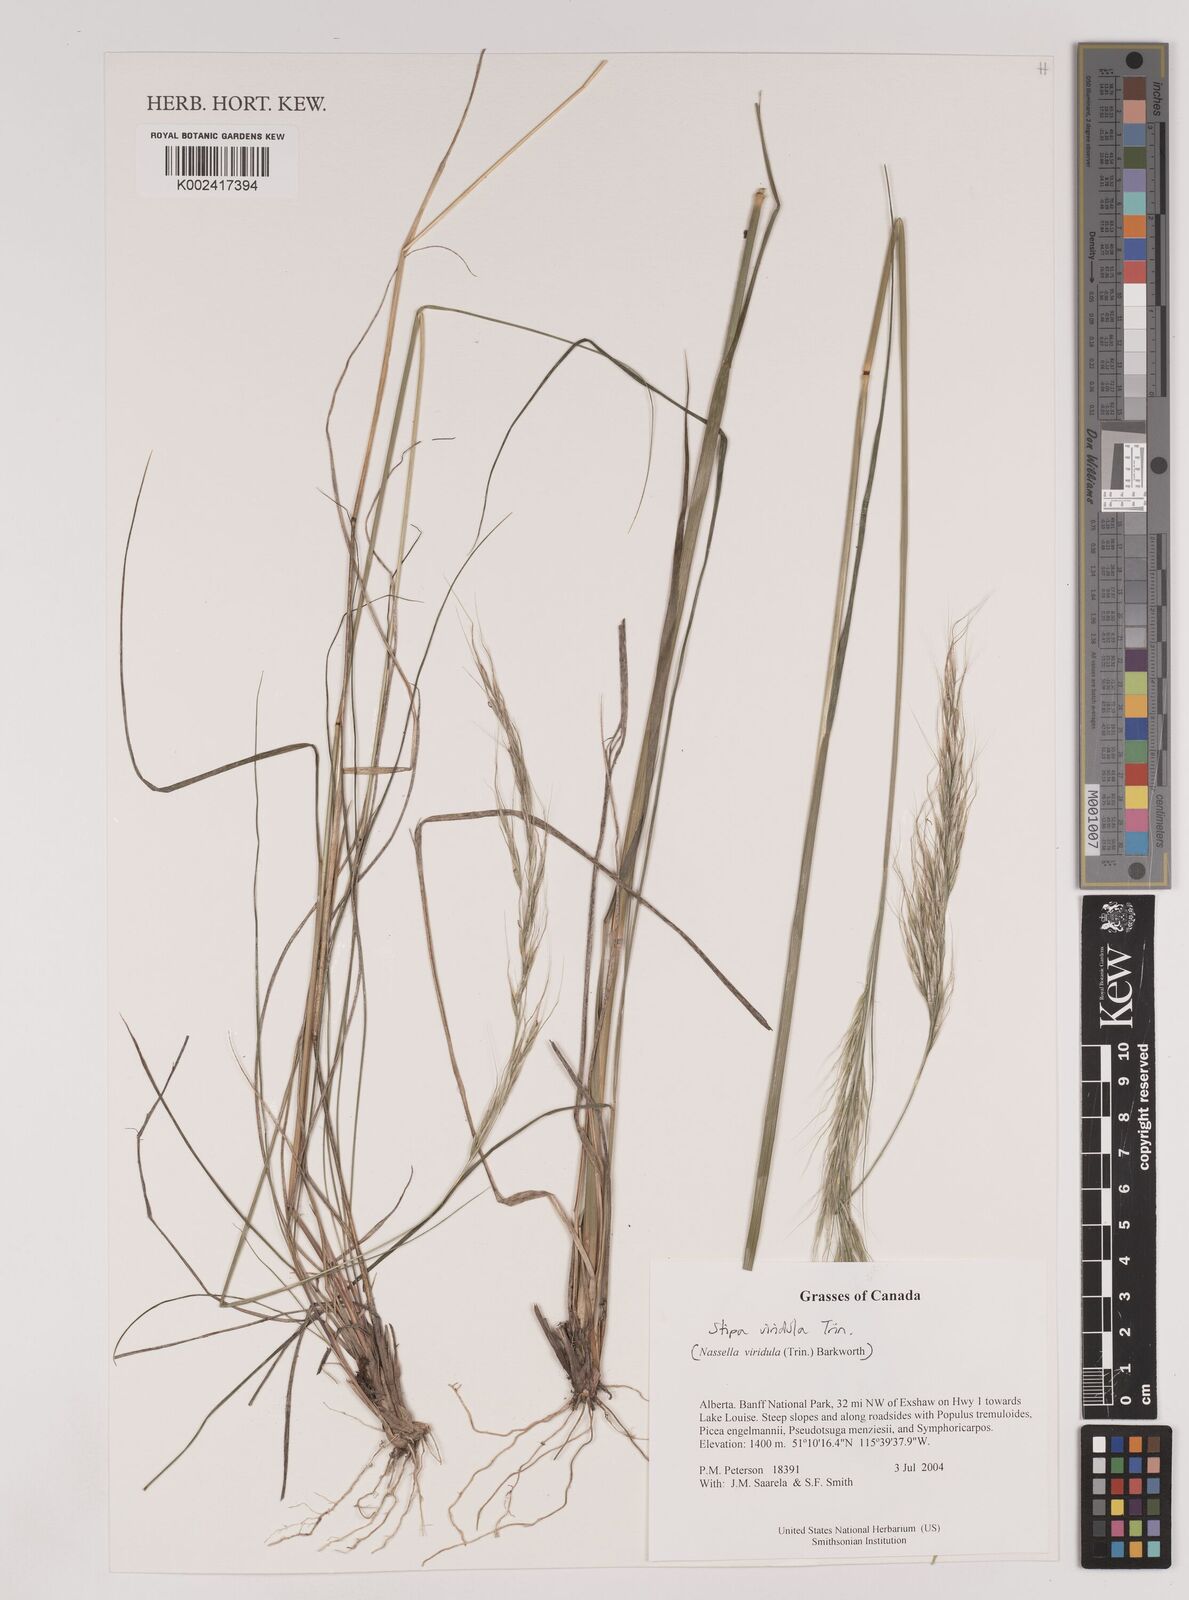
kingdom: Plantae
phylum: Tracheophyta
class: Liliopsida
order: Poales
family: Poaceae
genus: Nassella
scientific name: Nassella viridula
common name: Green needlegrass
